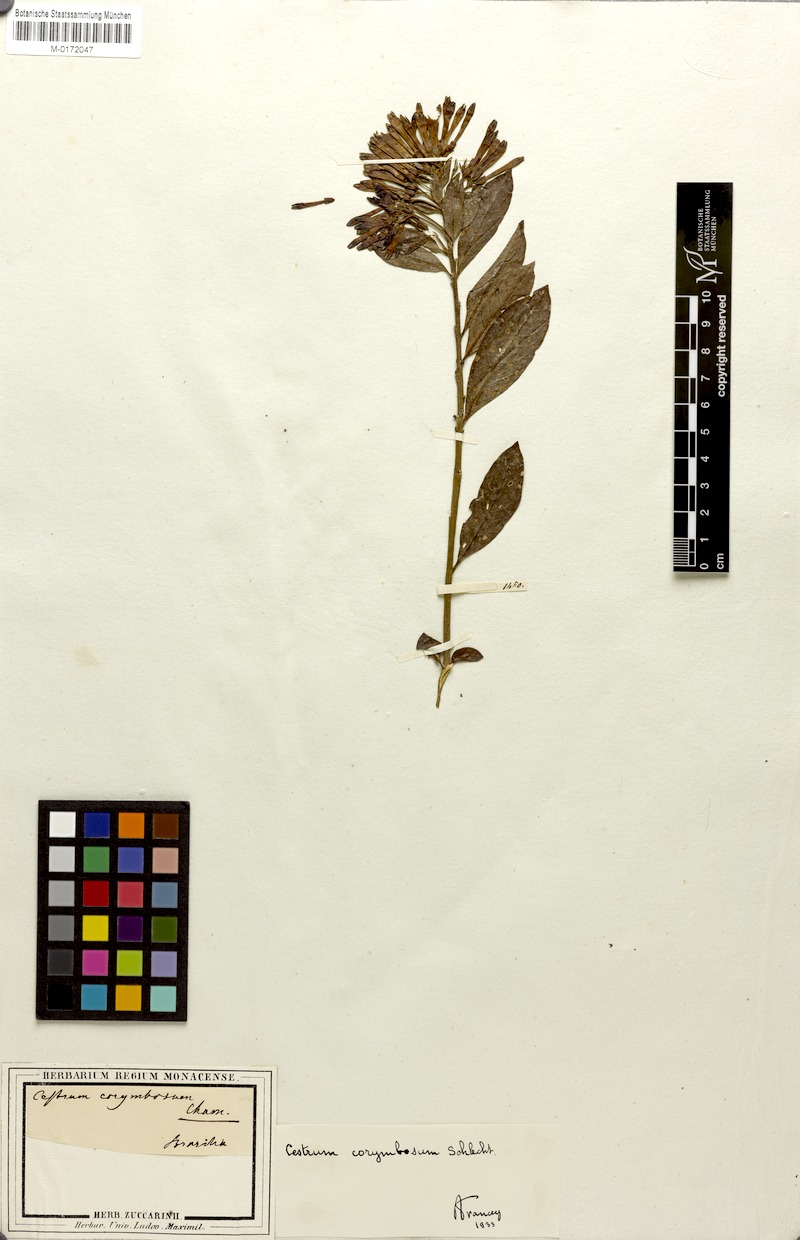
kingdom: Plantae
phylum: Tracheophyta
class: Magnoliopsida
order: Solanales
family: Solanaceae
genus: Cestrum
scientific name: Cestrum euanthes
